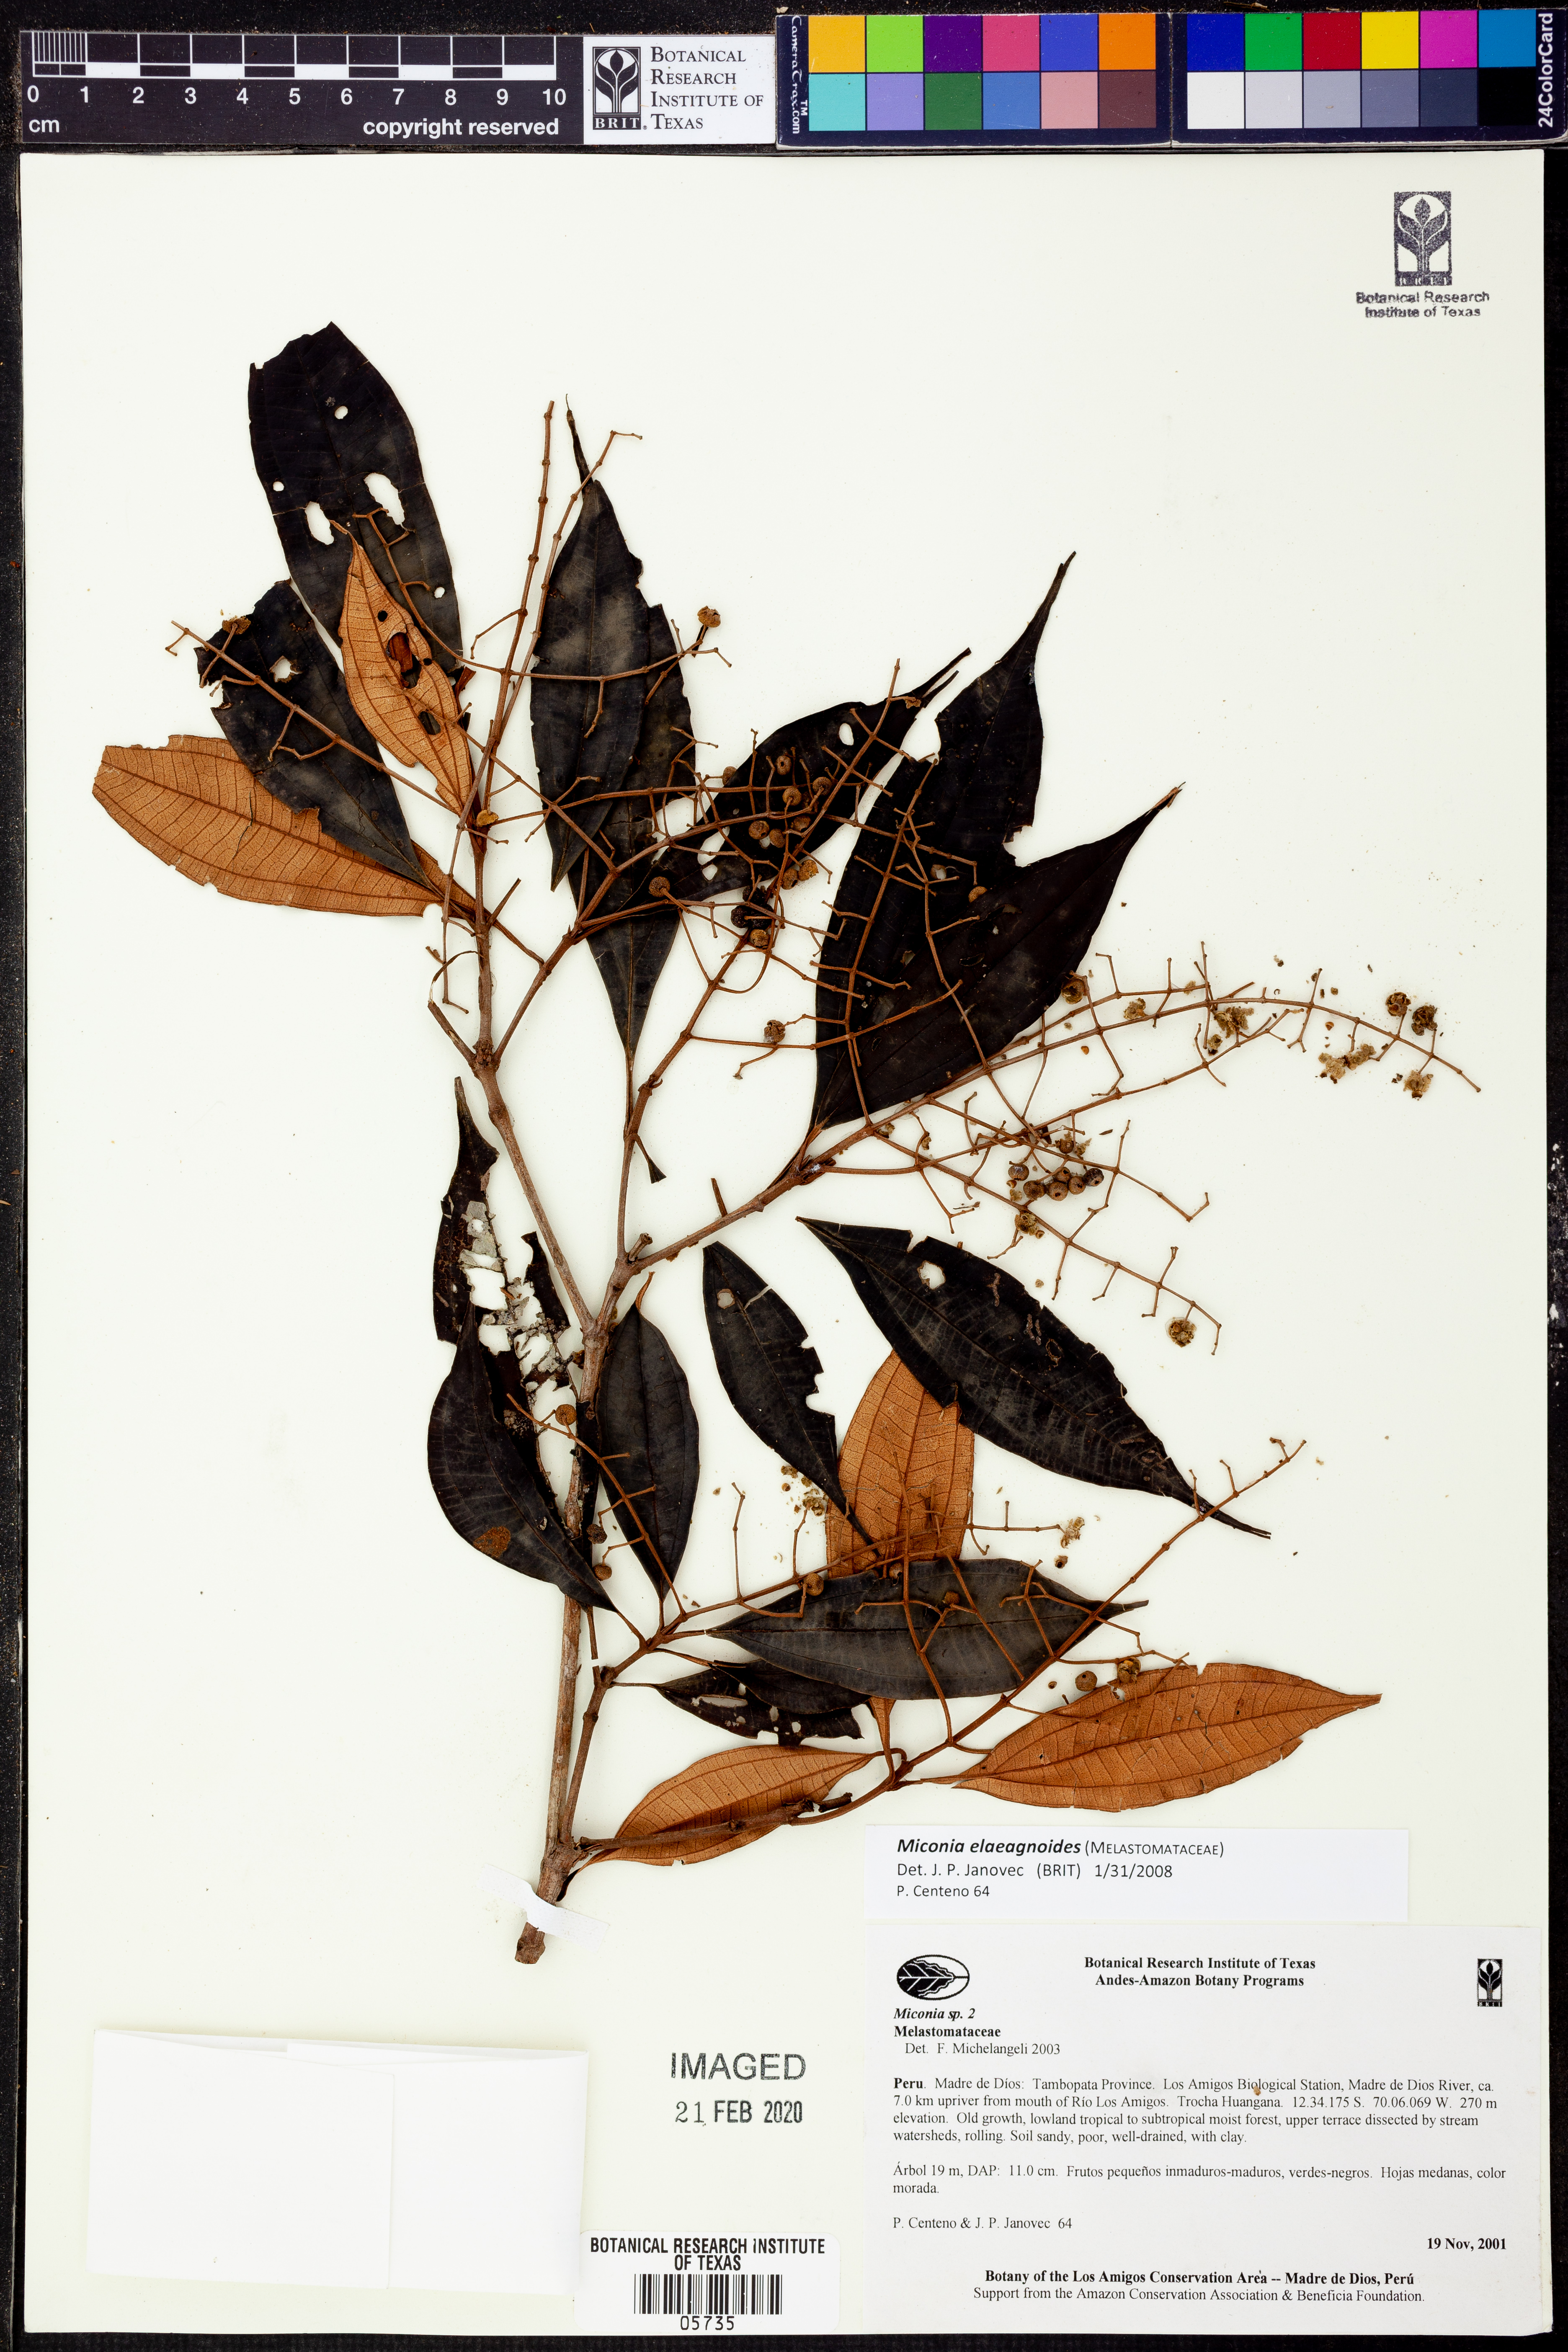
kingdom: Plantae
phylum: Tracheophyta
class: Magnoliopsida
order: Myrtales
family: Melastomataceae
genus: Miconia
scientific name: Miconia elaeagnoides
